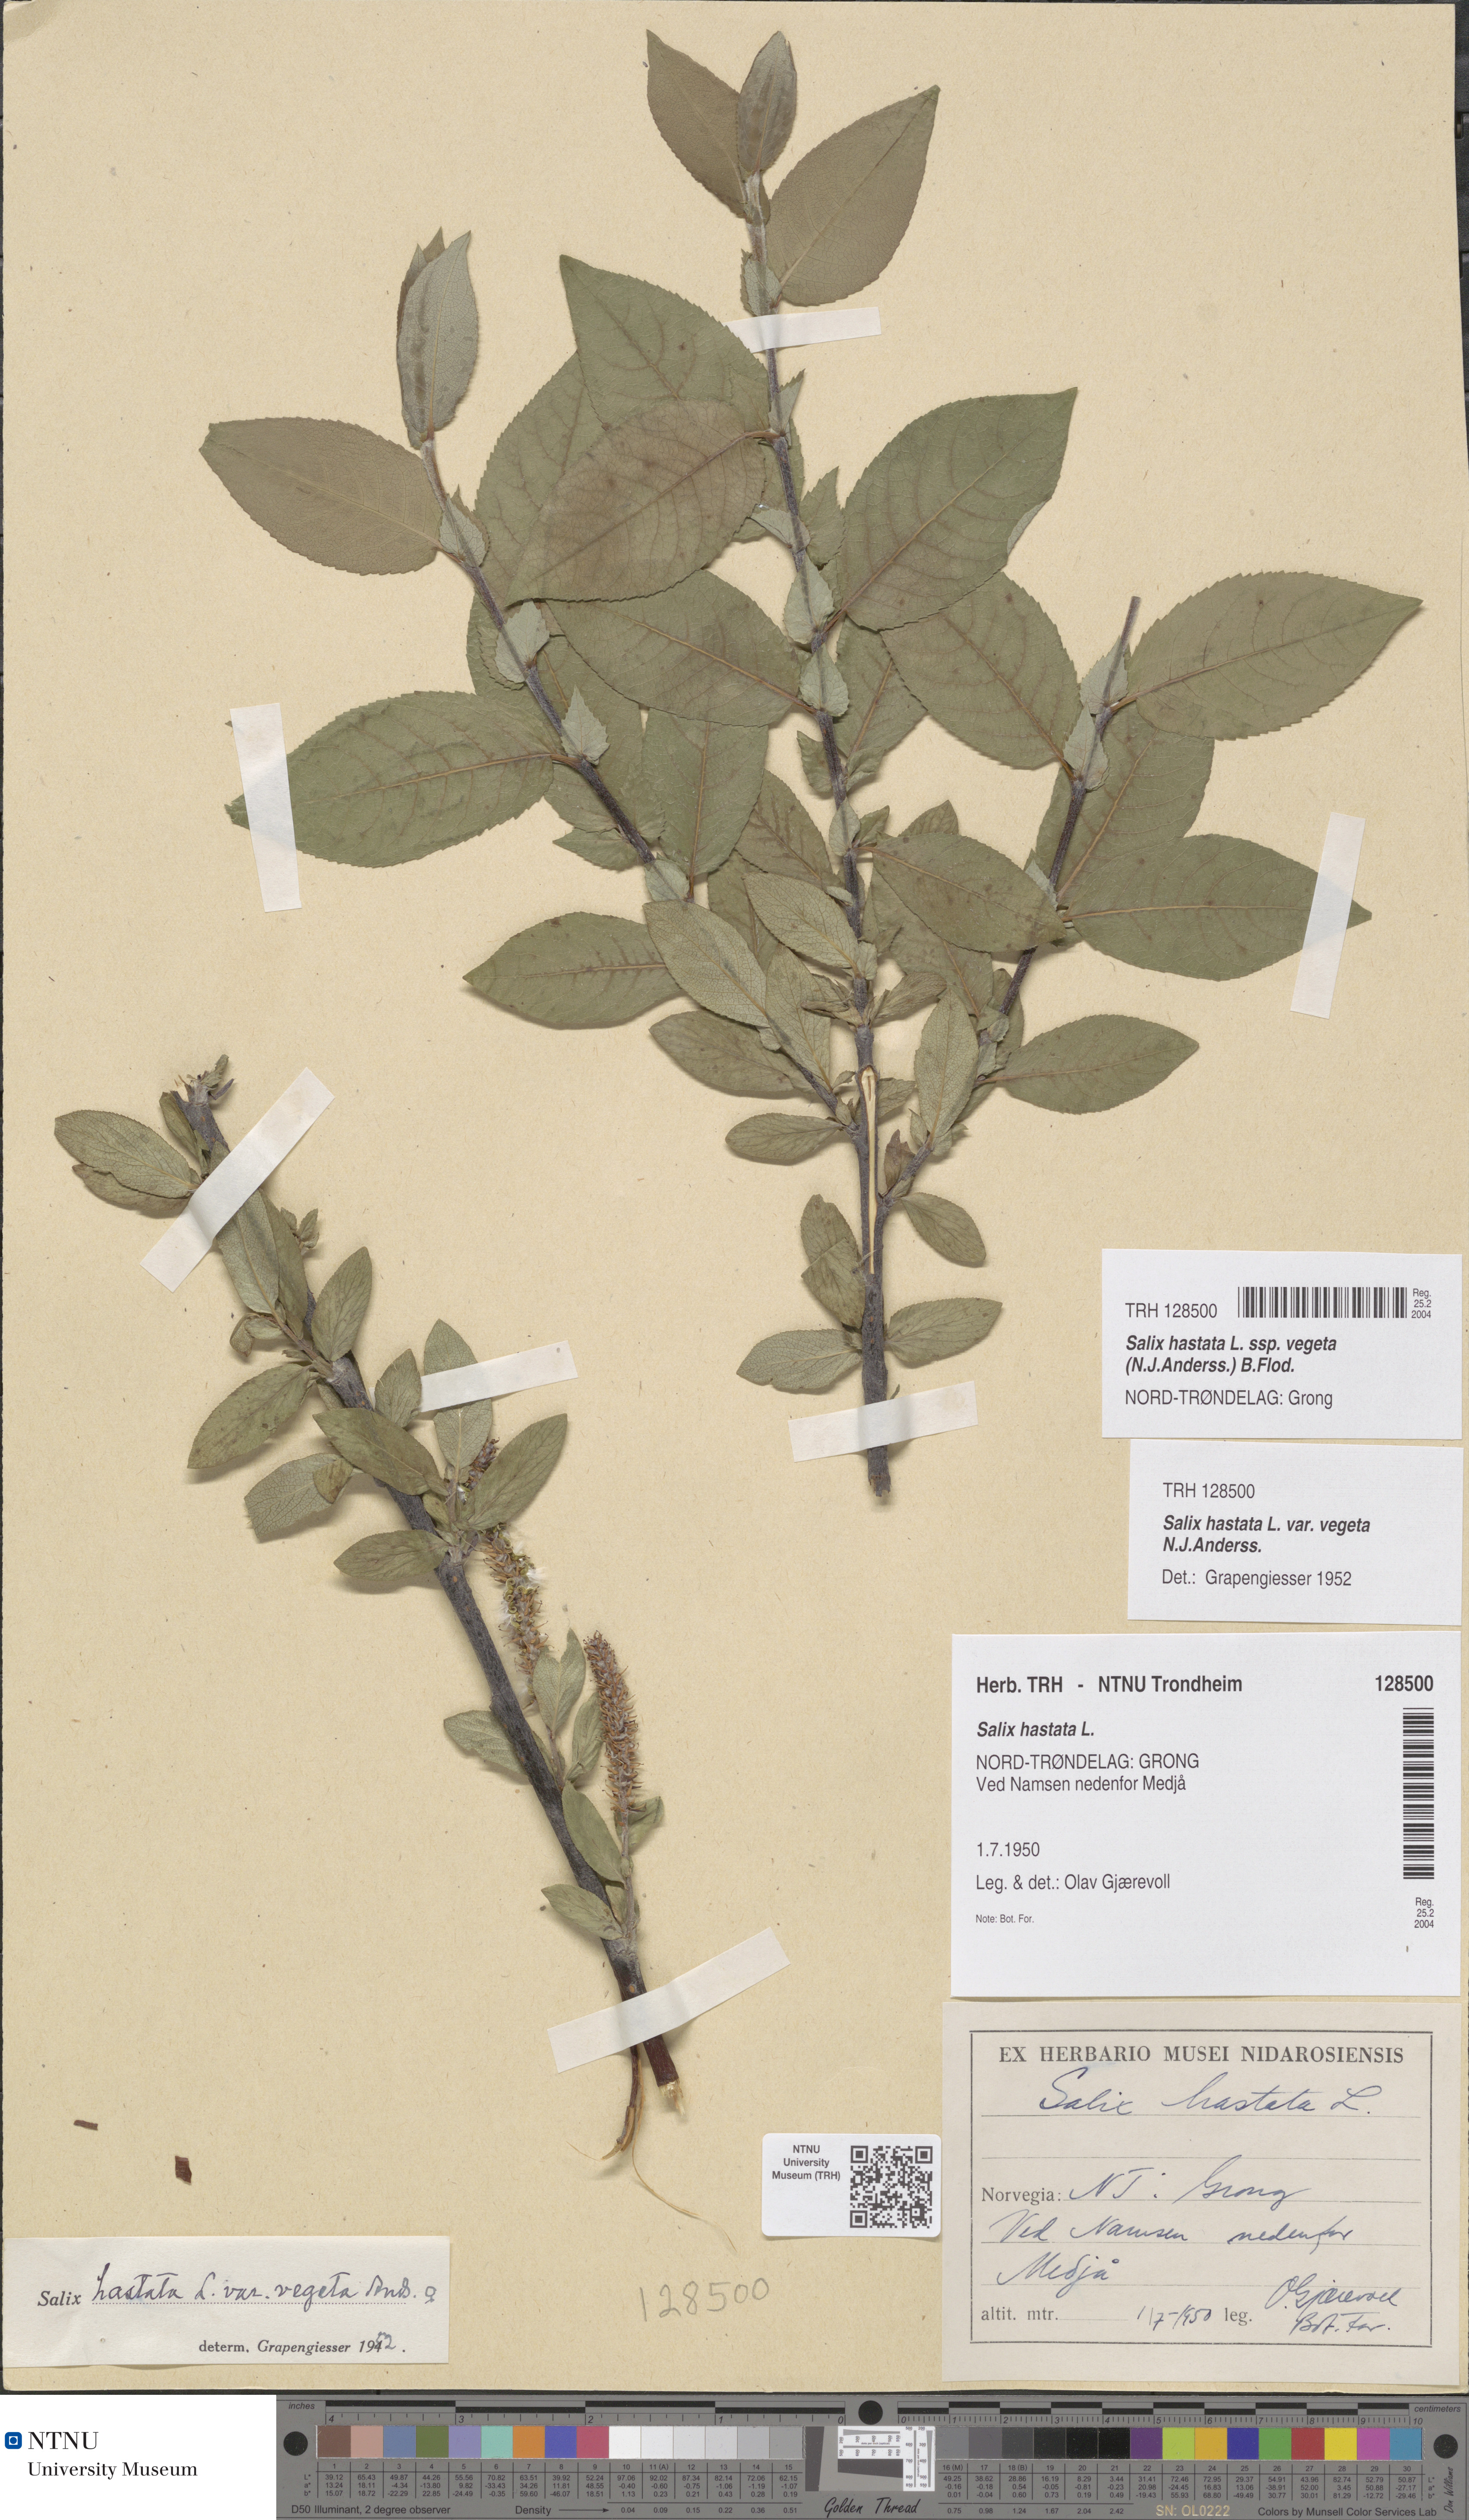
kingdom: Plantae
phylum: Tracheophyta
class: Magnoliopsida
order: Malpighiales
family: Salicaceae
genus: Salix
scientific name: Salix hastata
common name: Halberd willow
